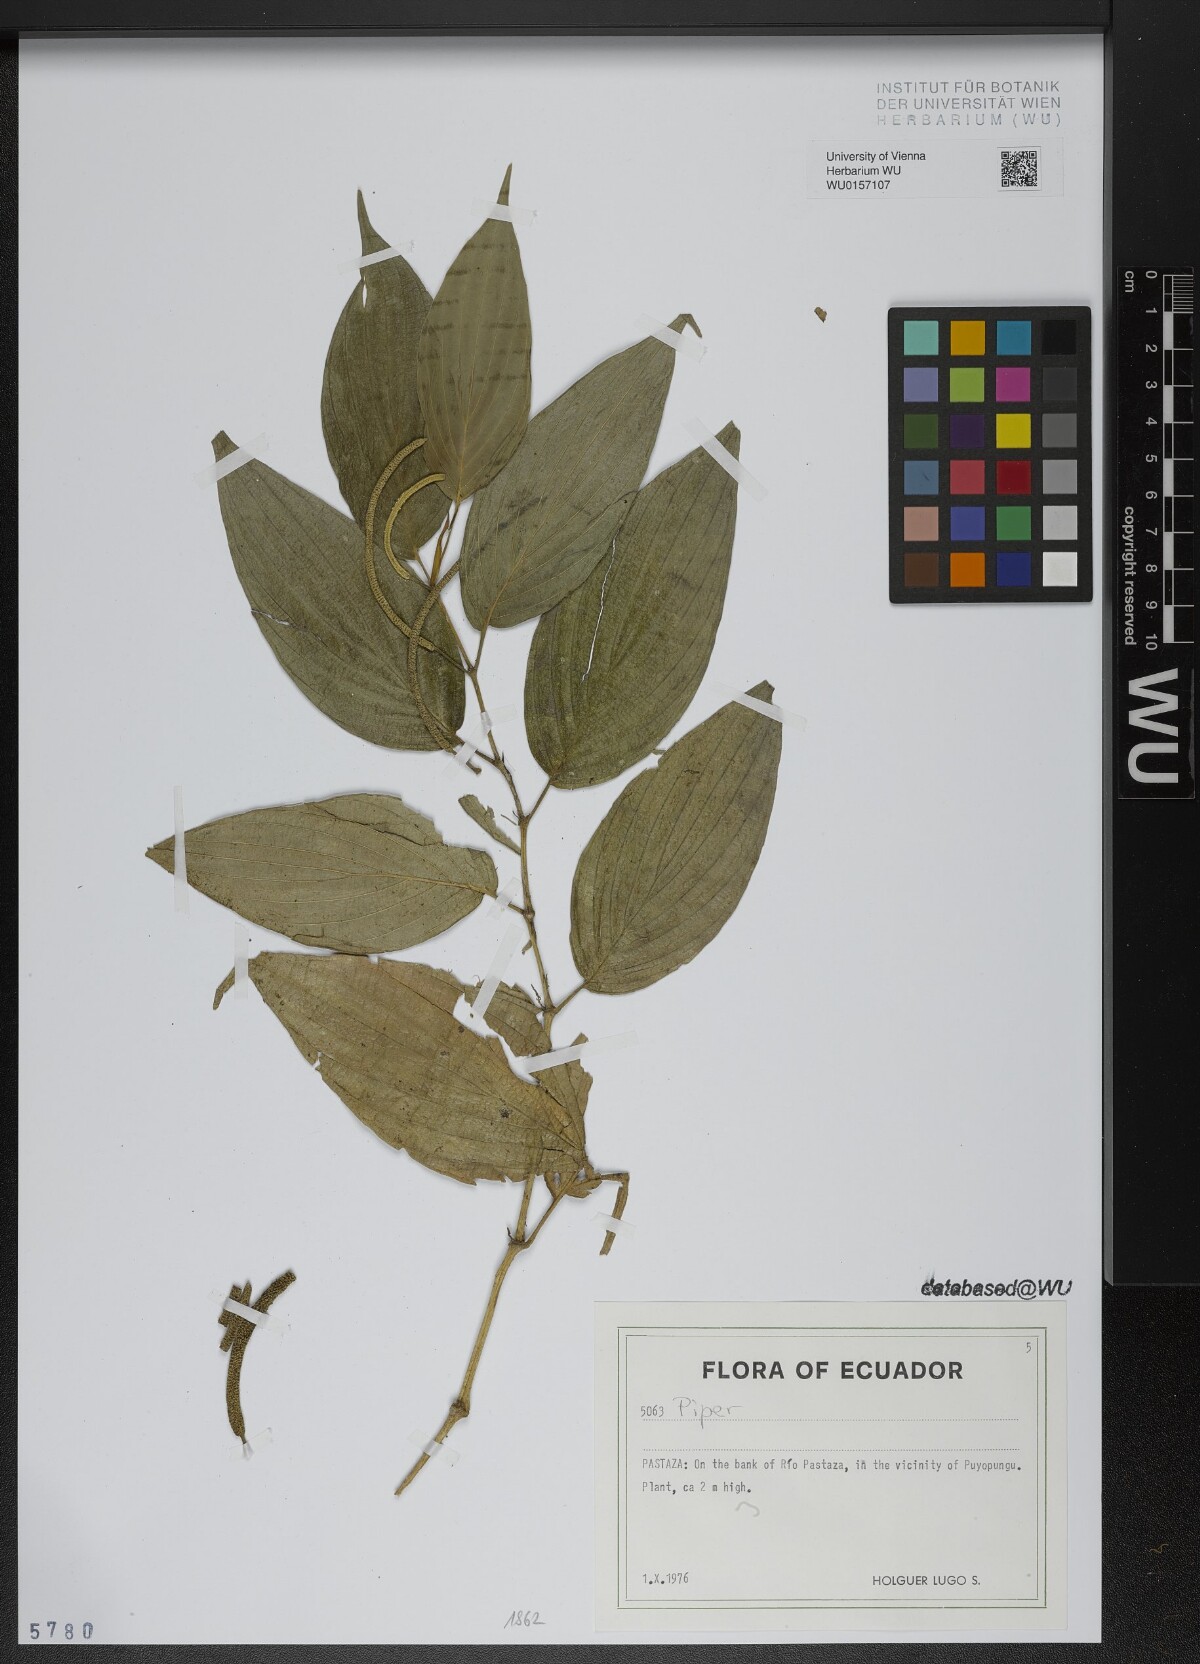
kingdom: Plantae
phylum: Tracheophyta
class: Magnoliopsida
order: Piperales
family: Piperaceae
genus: Piper
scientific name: Piper
